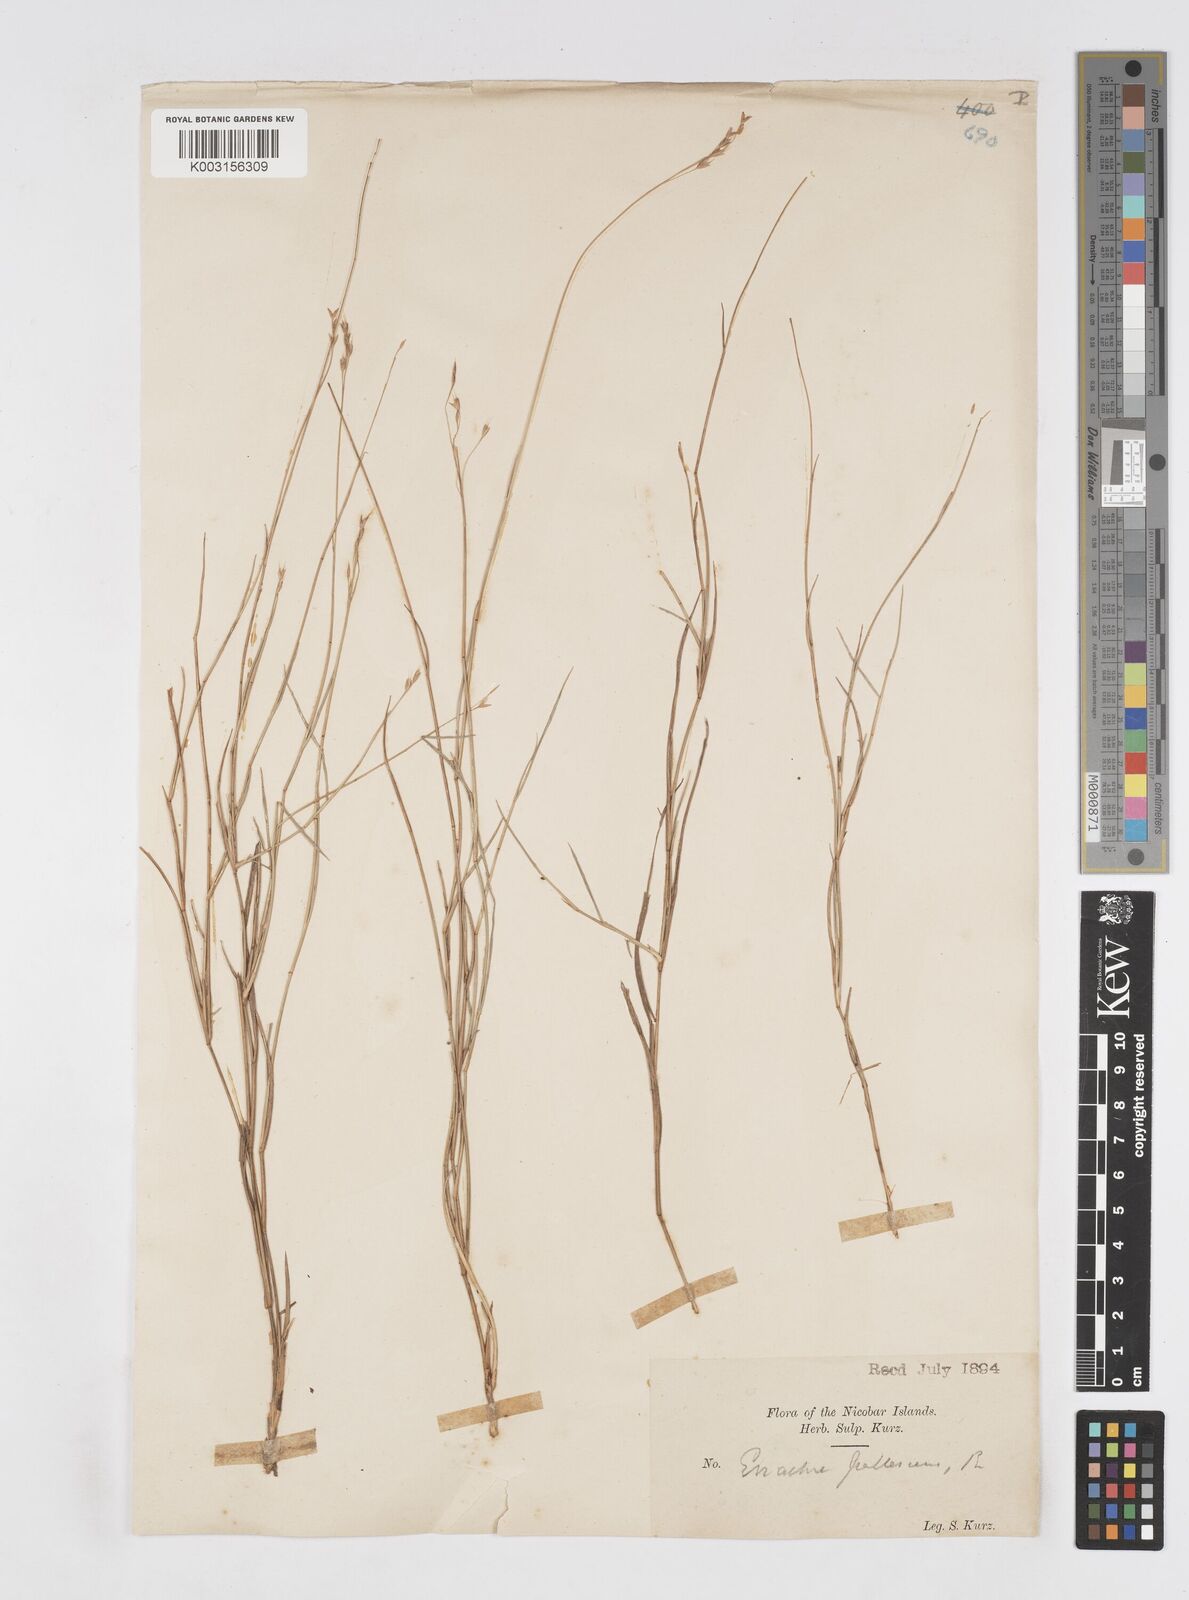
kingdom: Plantae
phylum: Tracheophyta
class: Liliopsida
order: Poales
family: Poaceae
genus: Eriachne
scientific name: Eriachne pallescens
